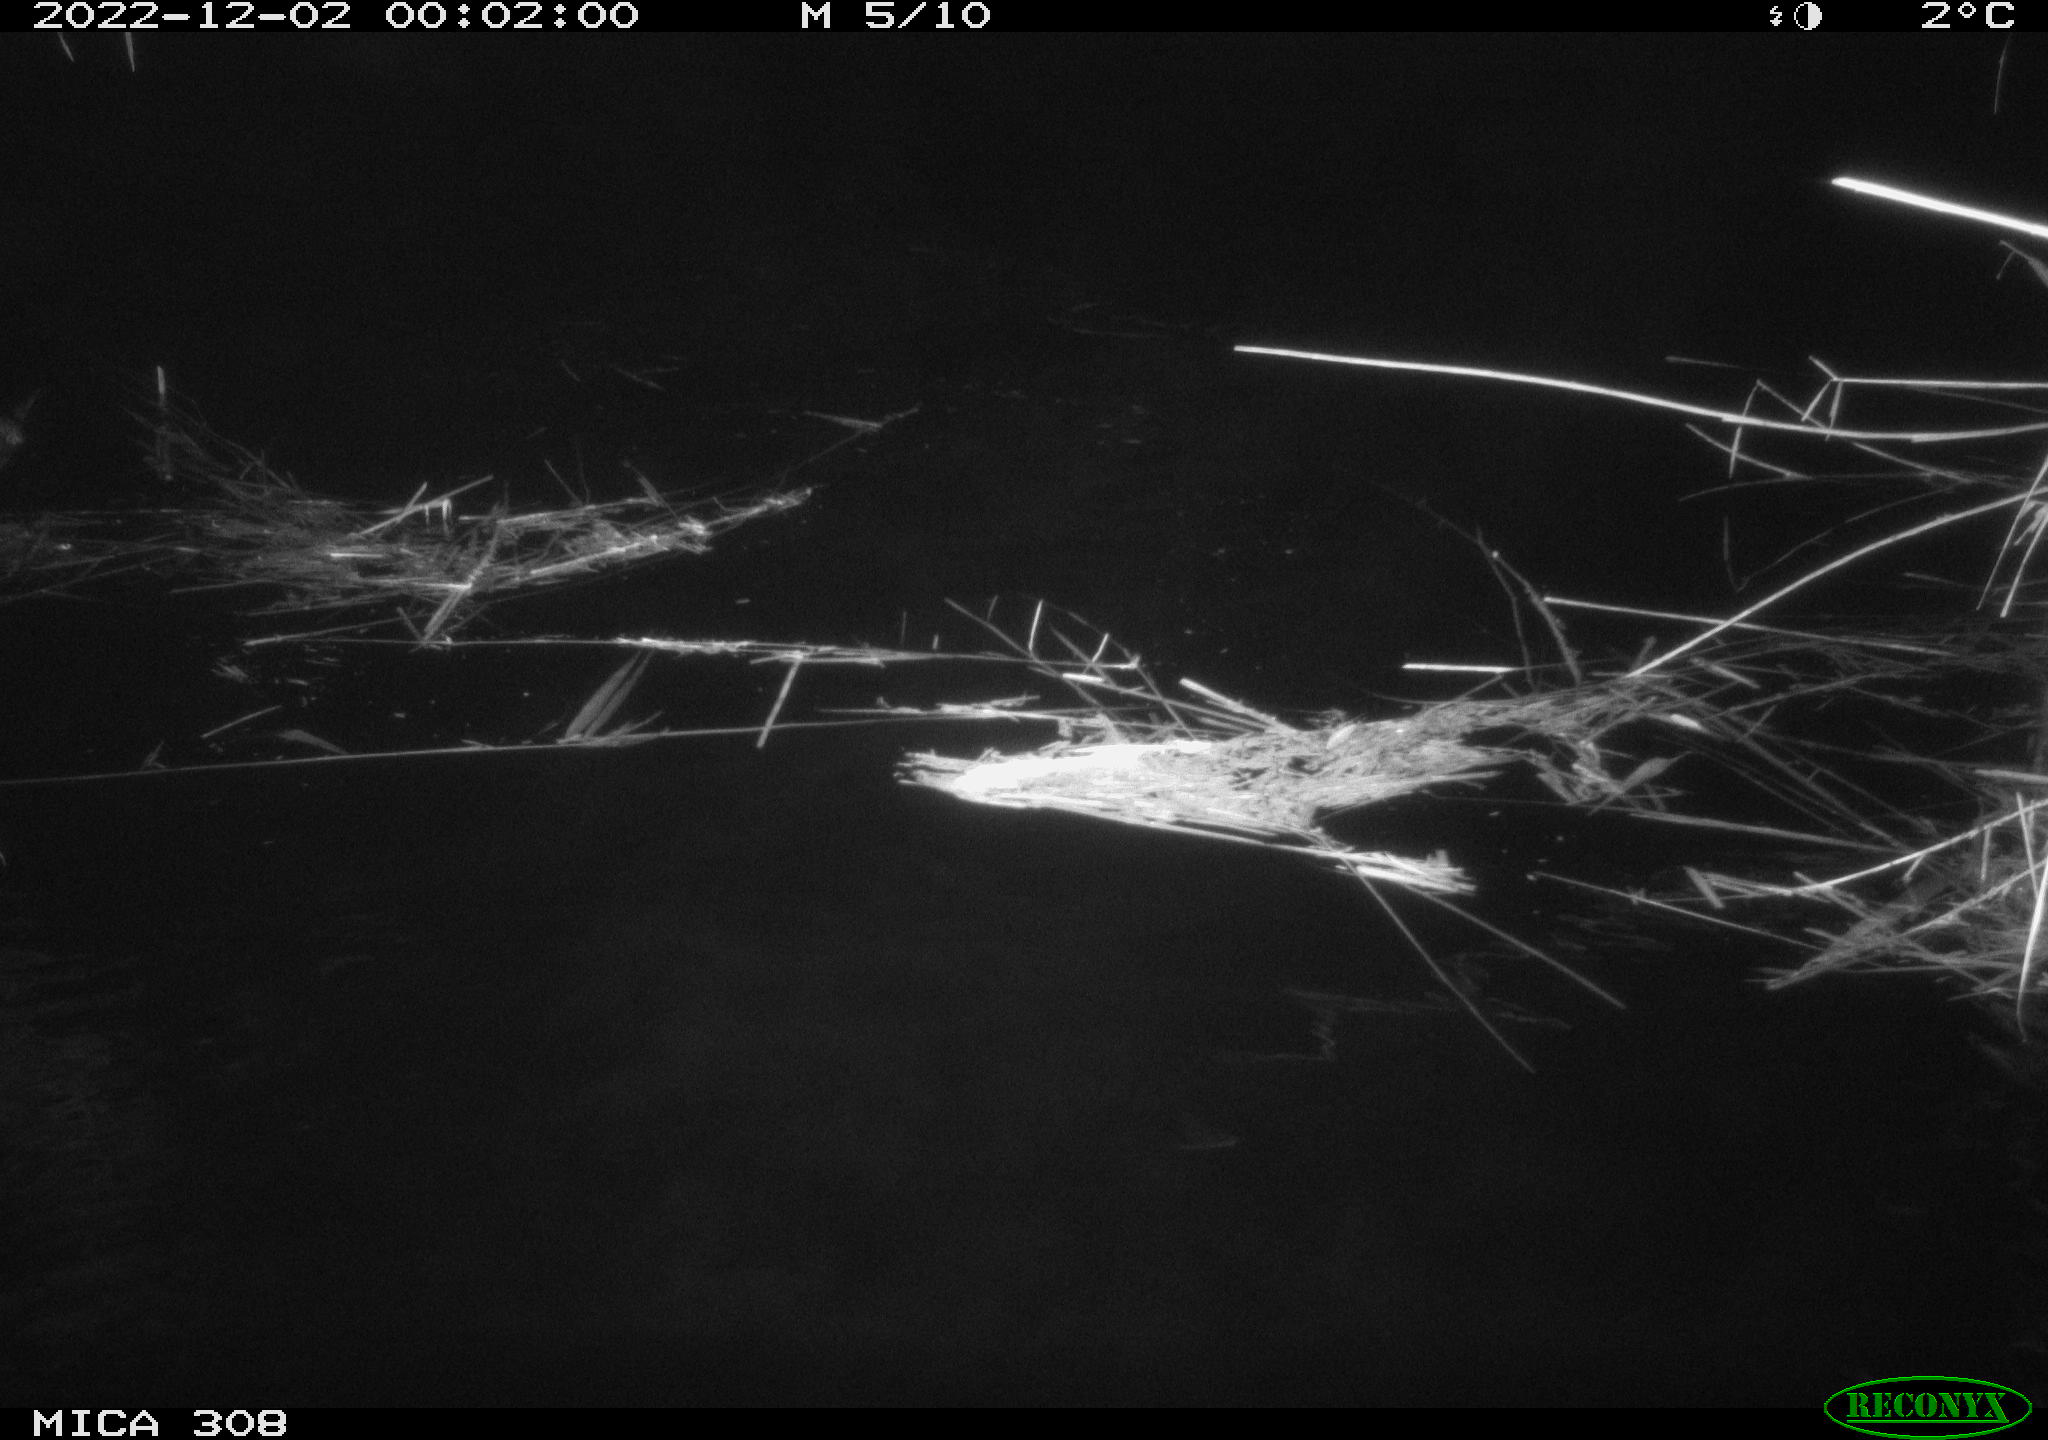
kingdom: Animalia
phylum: Chordata
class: Mammalia
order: Rodentia
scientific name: Rodentia
